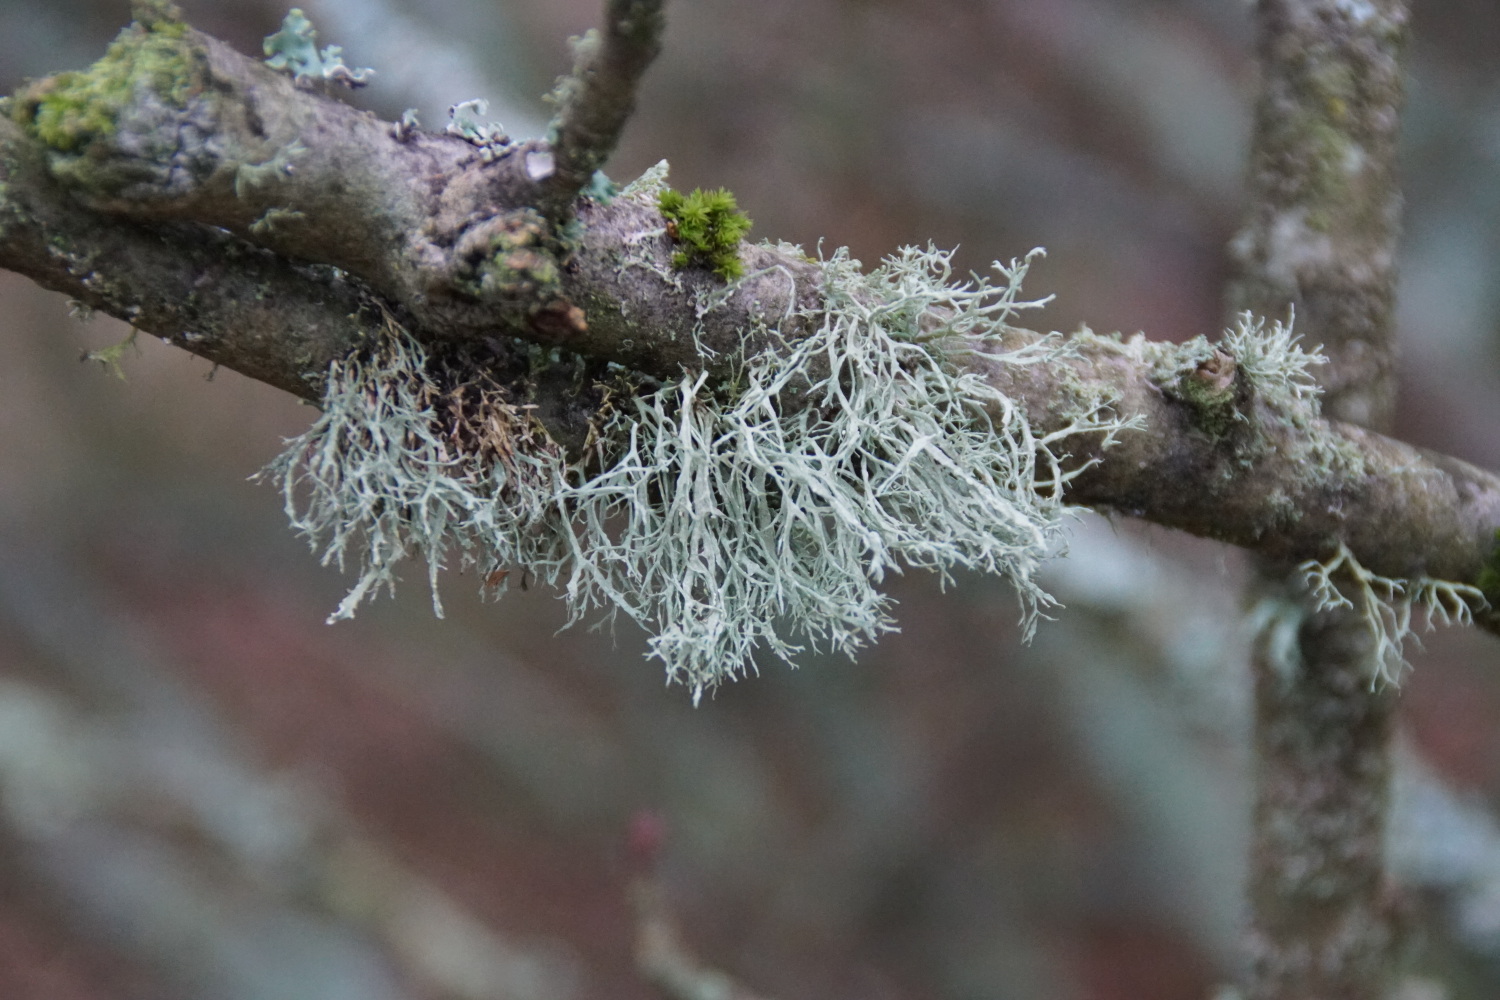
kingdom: Fungi
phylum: Ascomycota
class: Lecanoromycetes
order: Lecanorales
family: Ramalinaceae
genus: Ramalina
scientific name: Ramalina farinacea
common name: melet grenlav
